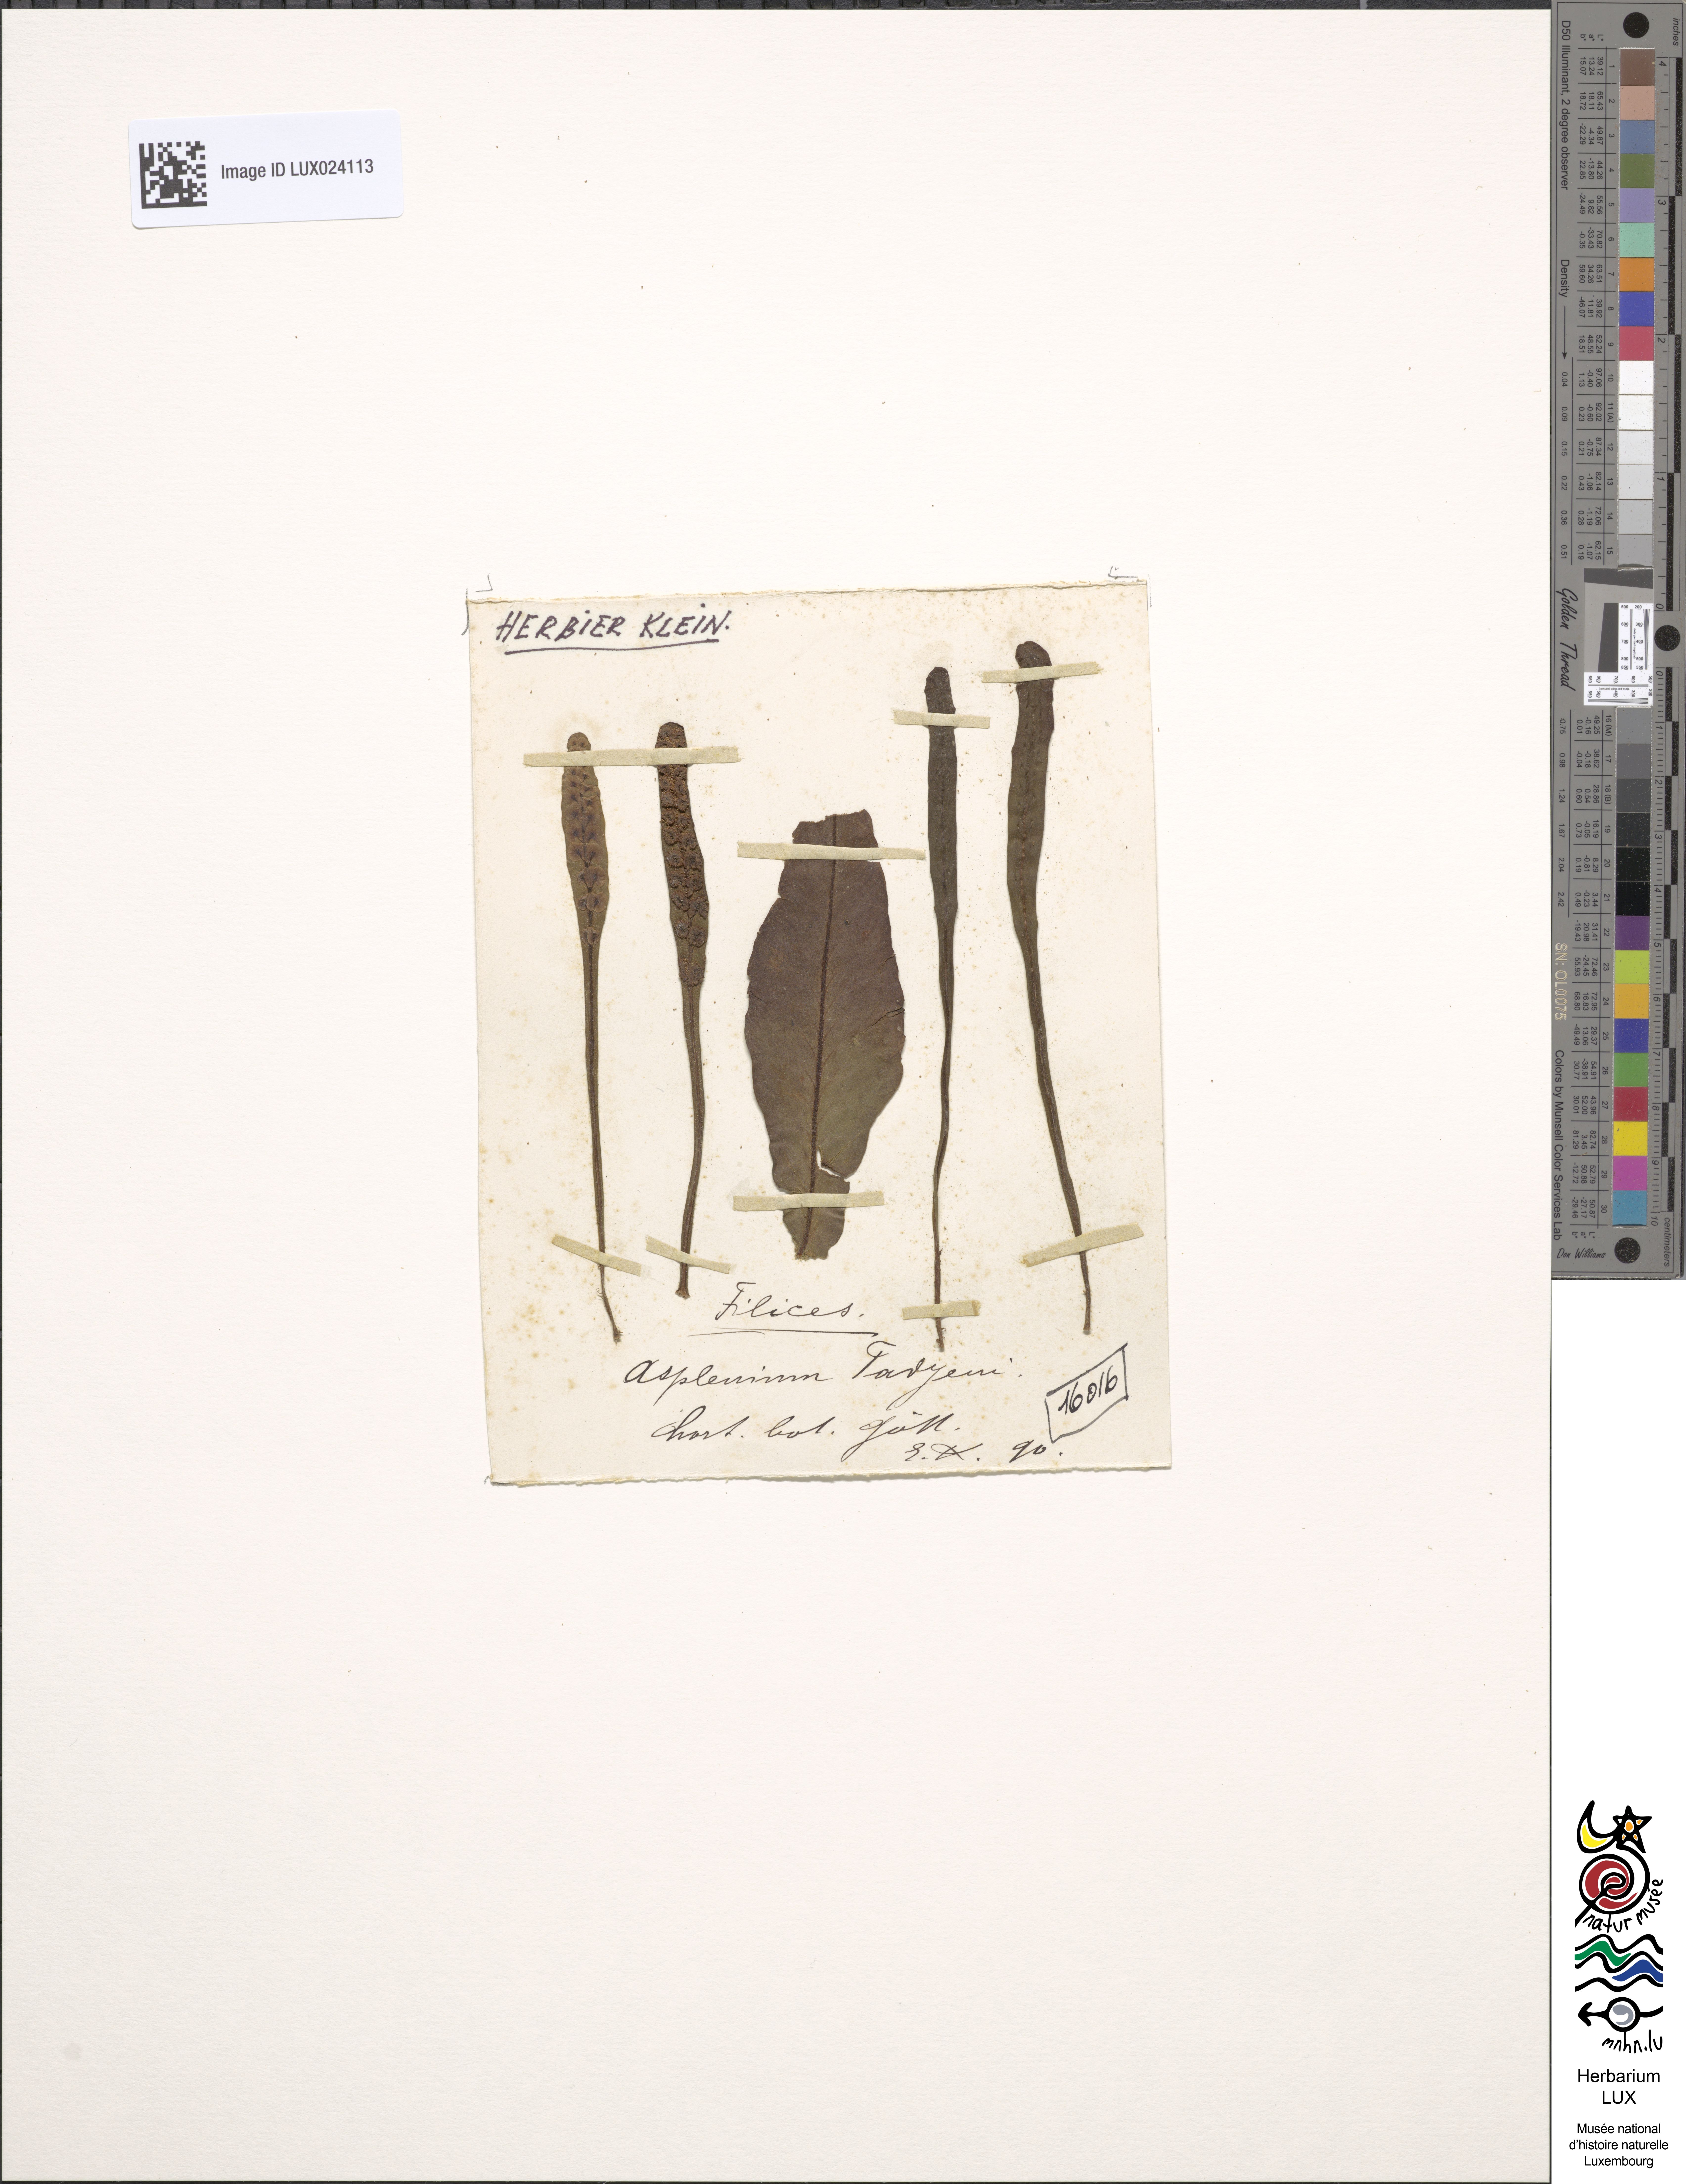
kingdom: Plantae
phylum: Tracheophyta
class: Polypodiopsida
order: Polypodiales
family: Aspleniaceae
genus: Asplenium
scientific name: Asplenium
